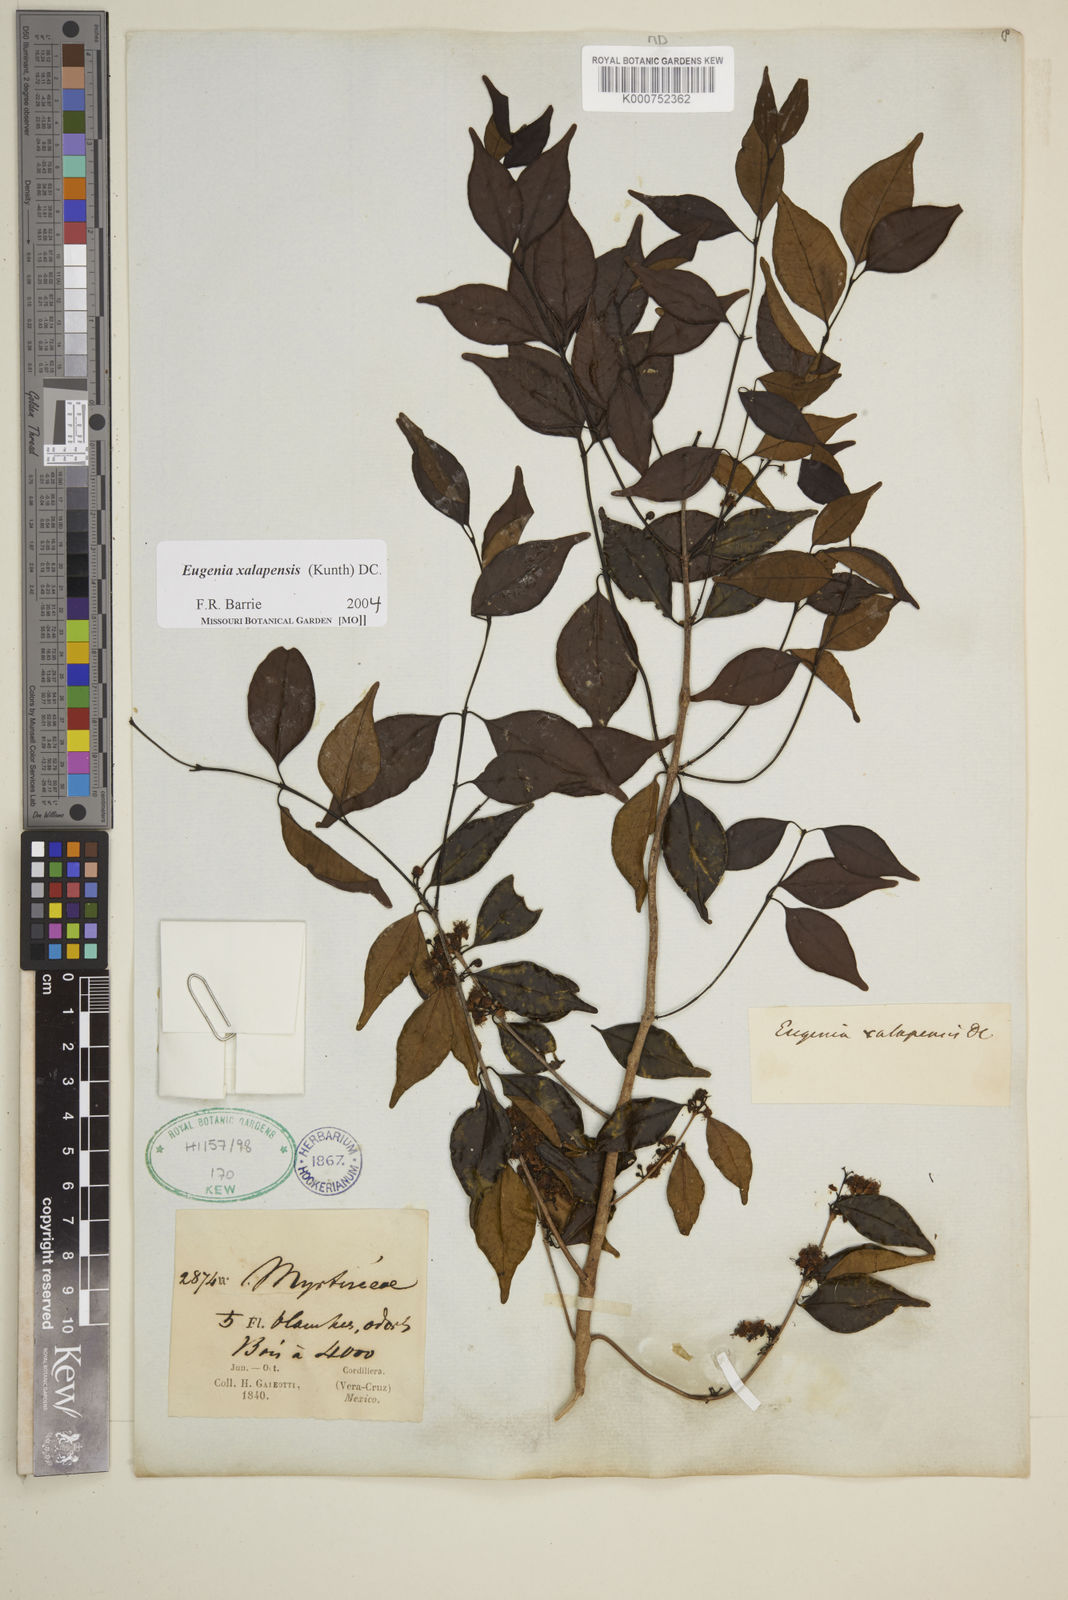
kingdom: Plantae
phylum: Tracheophyta
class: Magnoliopsida
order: Myrtales
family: Myrtaceae
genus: Eugenia
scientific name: Eugenia xalapensis
